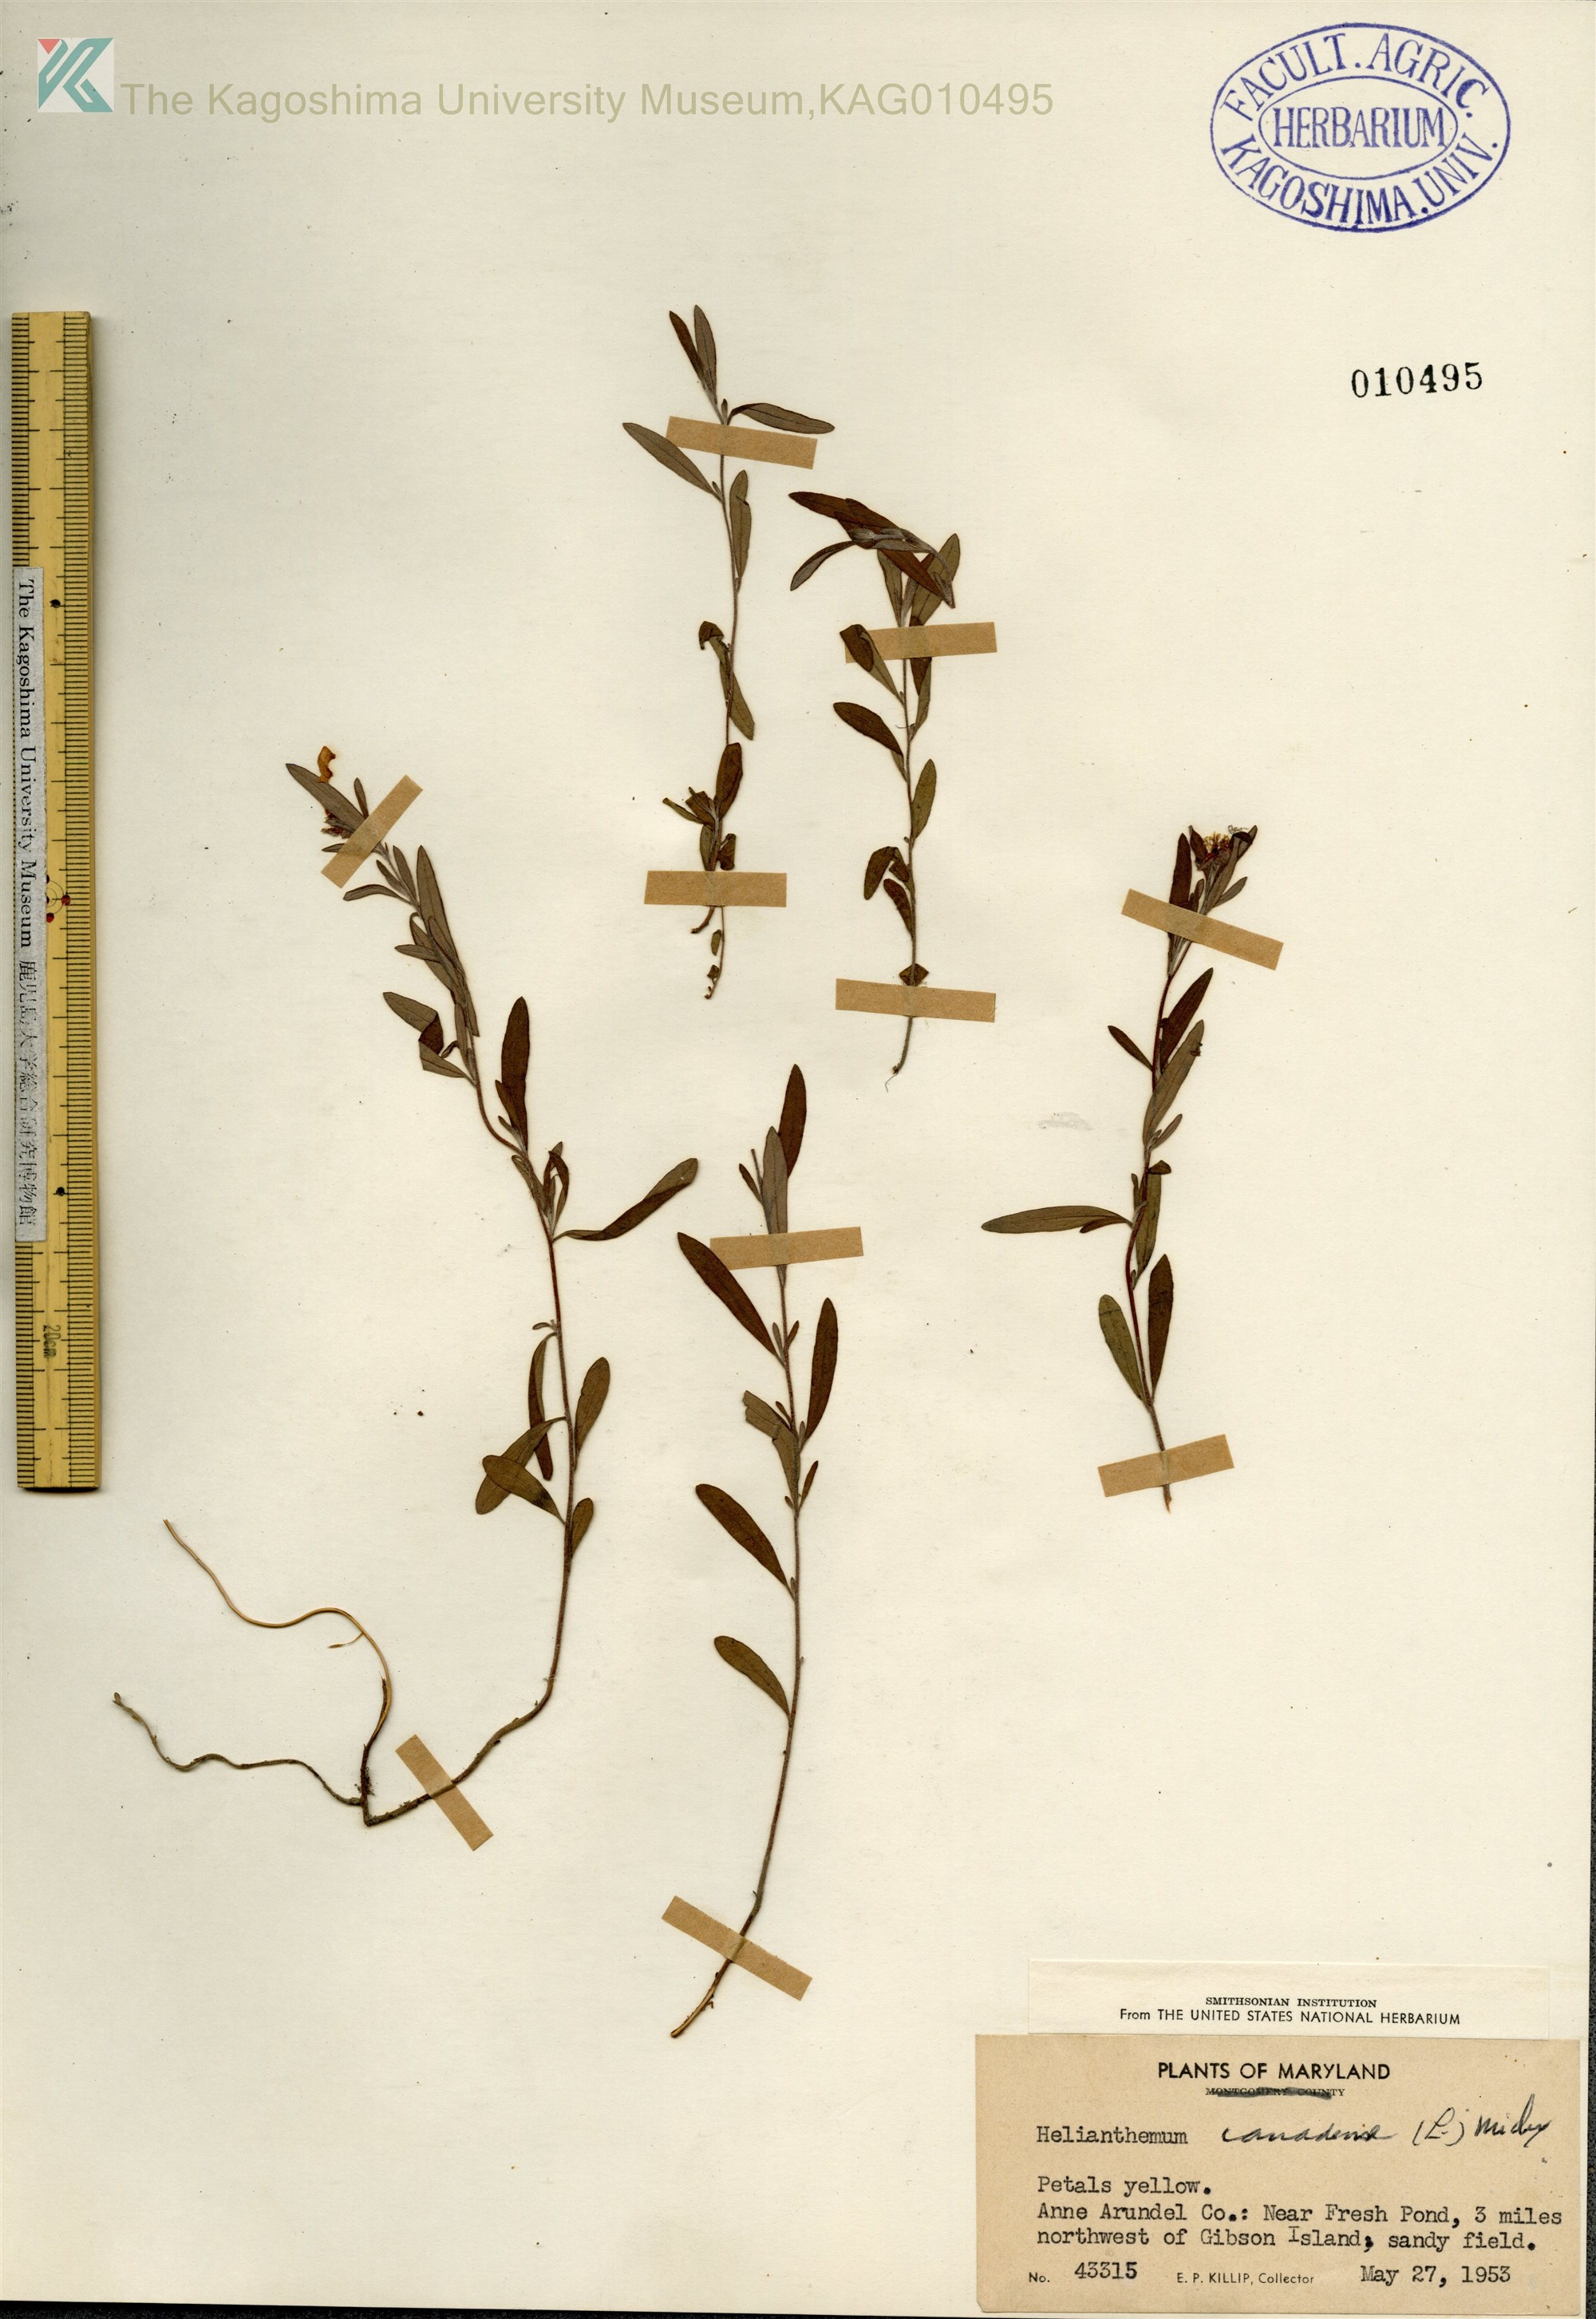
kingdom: Plantae
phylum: Tracheophyta
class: Magnoliopsida
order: Malvales
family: Cistaceae
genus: Crocanthemum
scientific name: Crocanthemum canadense
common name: Canada frostweed
